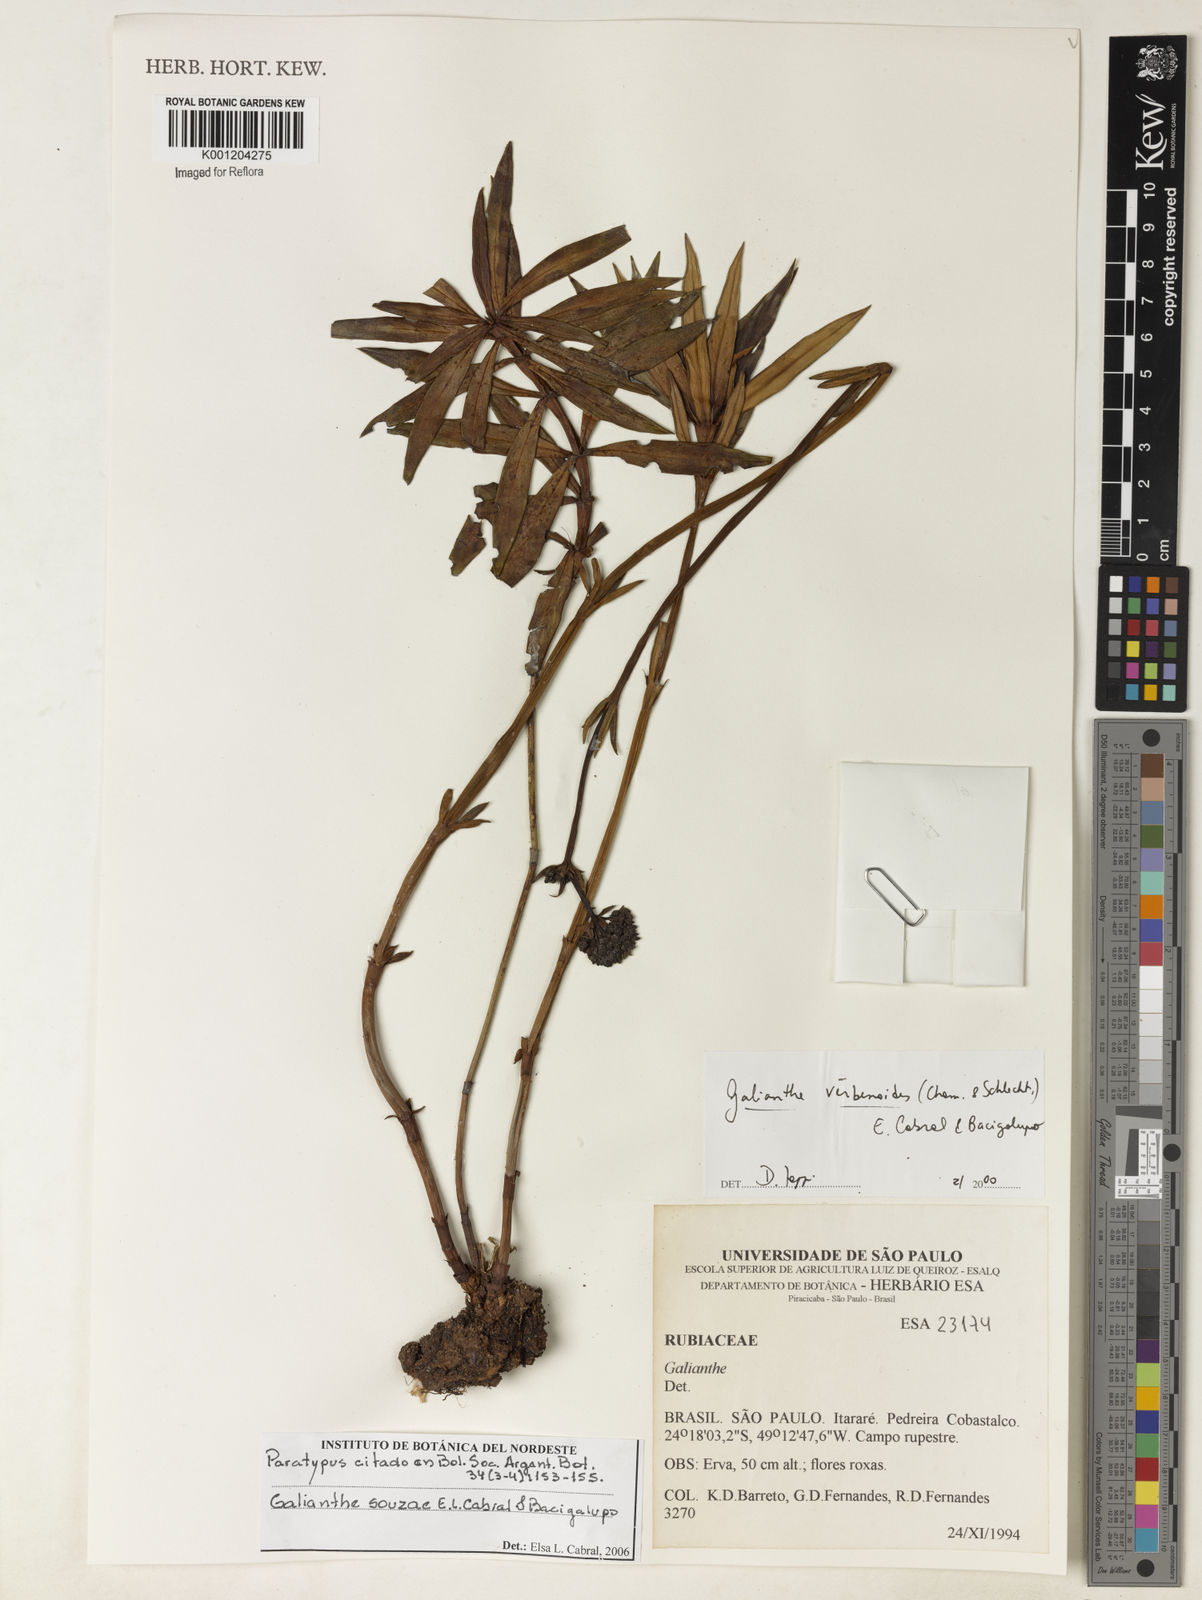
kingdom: Plantae
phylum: Tracheophyta
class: Magnoliopsida
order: Gentianales
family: Rubiaceae
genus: Galianthe
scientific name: Galianthe souzae
